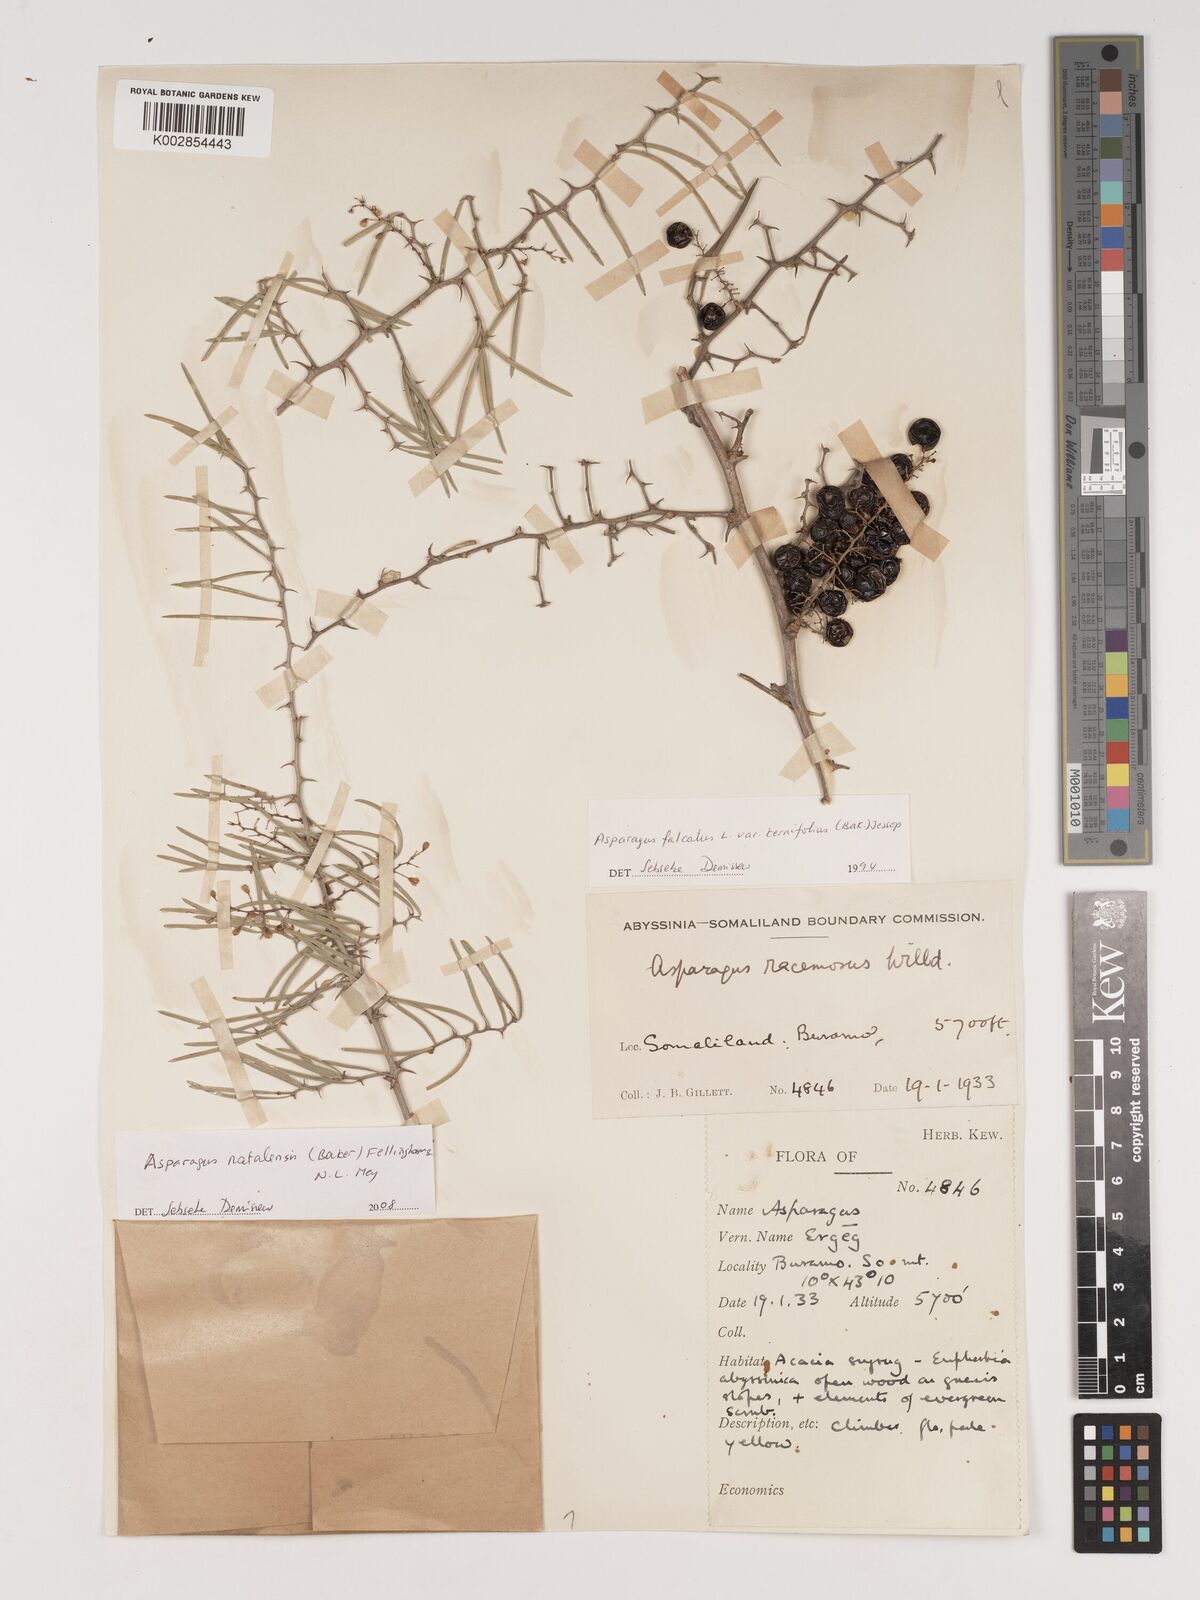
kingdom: Plantae
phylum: Tracheophyta
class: Liliopsida
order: Asparagales
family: Asparagaceae
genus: Asparagus
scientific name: Asparagus natalensis
